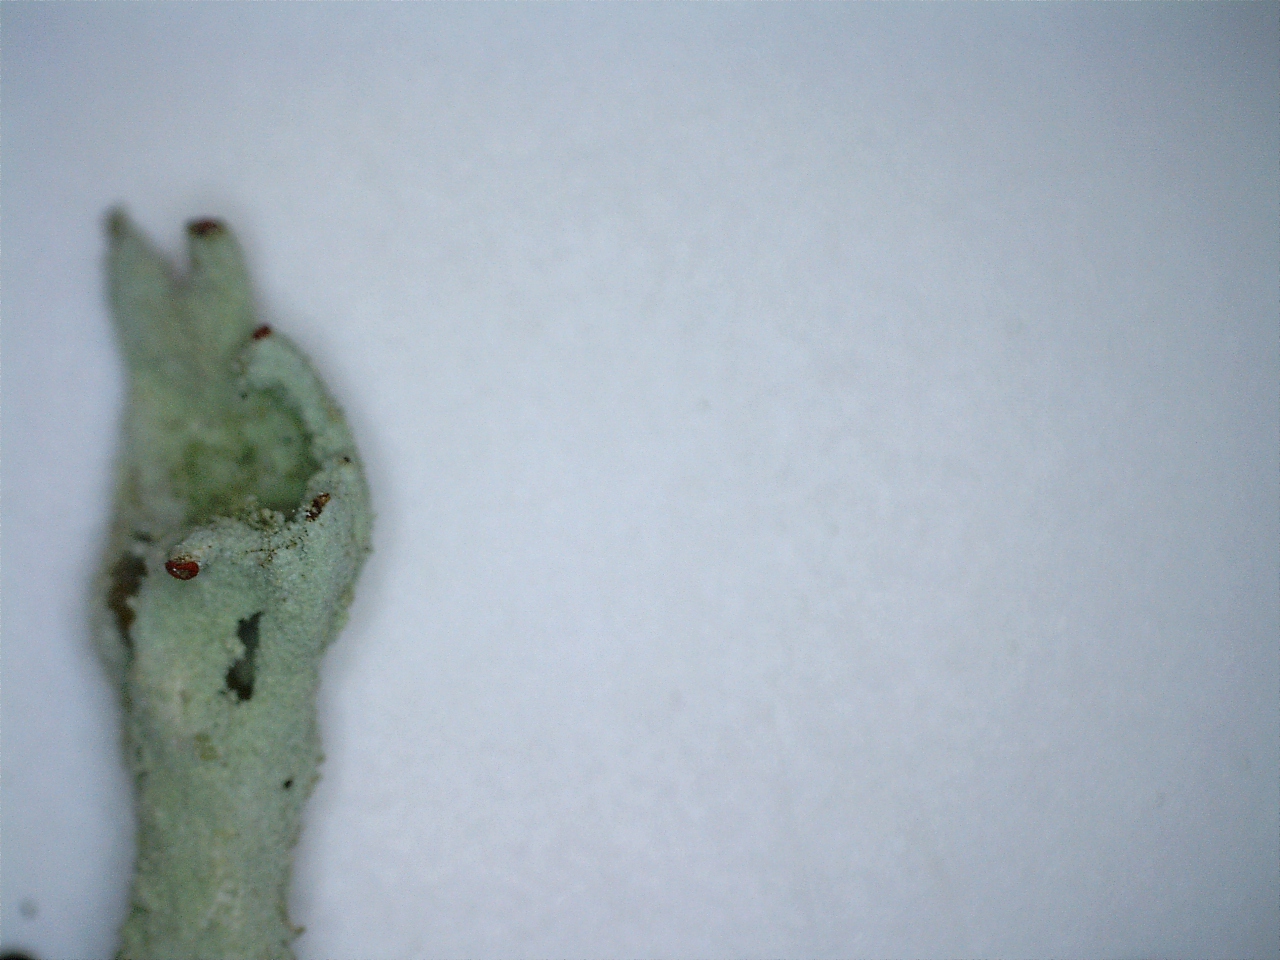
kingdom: Fungi
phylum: Ascomycota
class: Lecanoromycetes
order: Lecanorales
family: Cladoniaceae
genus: Cladonia
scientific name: Cladonia sulphurina
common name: opblæst bægerlav
